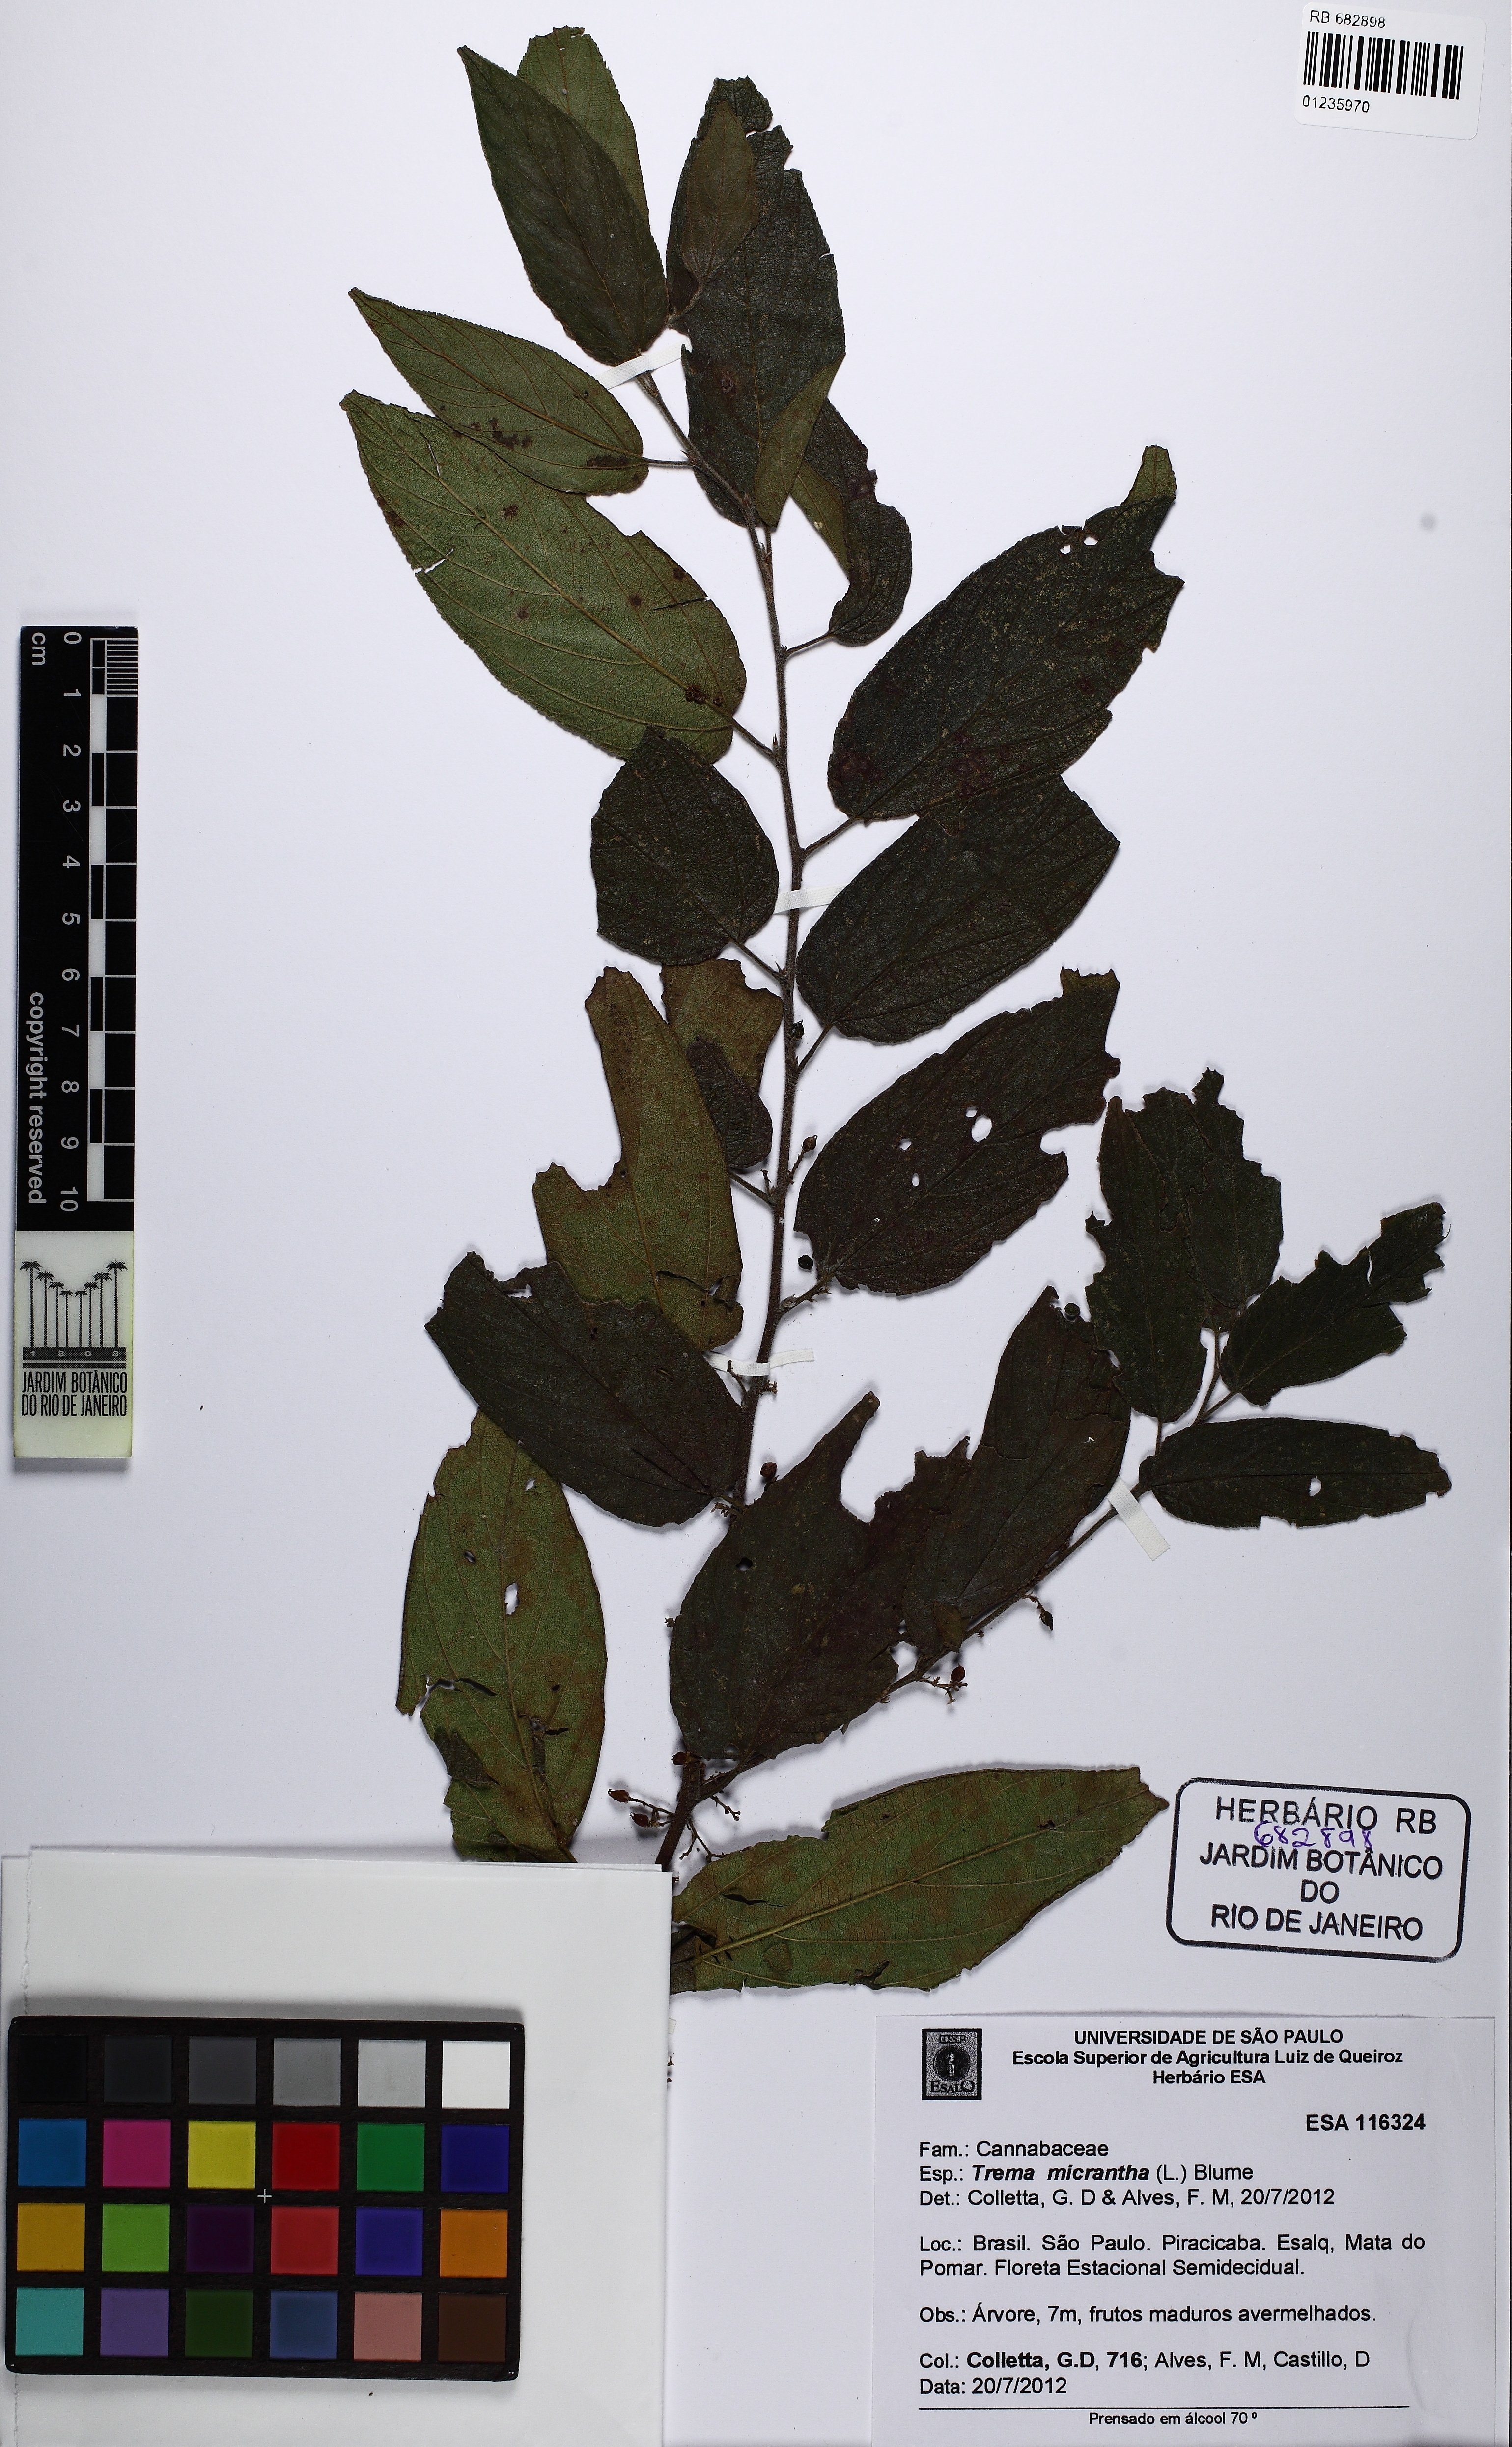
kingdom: Plantae
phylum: Tracheophyta
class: Magnoliopsida
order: Rosales
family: Cannabaceae
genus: Trema
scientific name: Trema micranthum
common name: Jamaican nettletree
